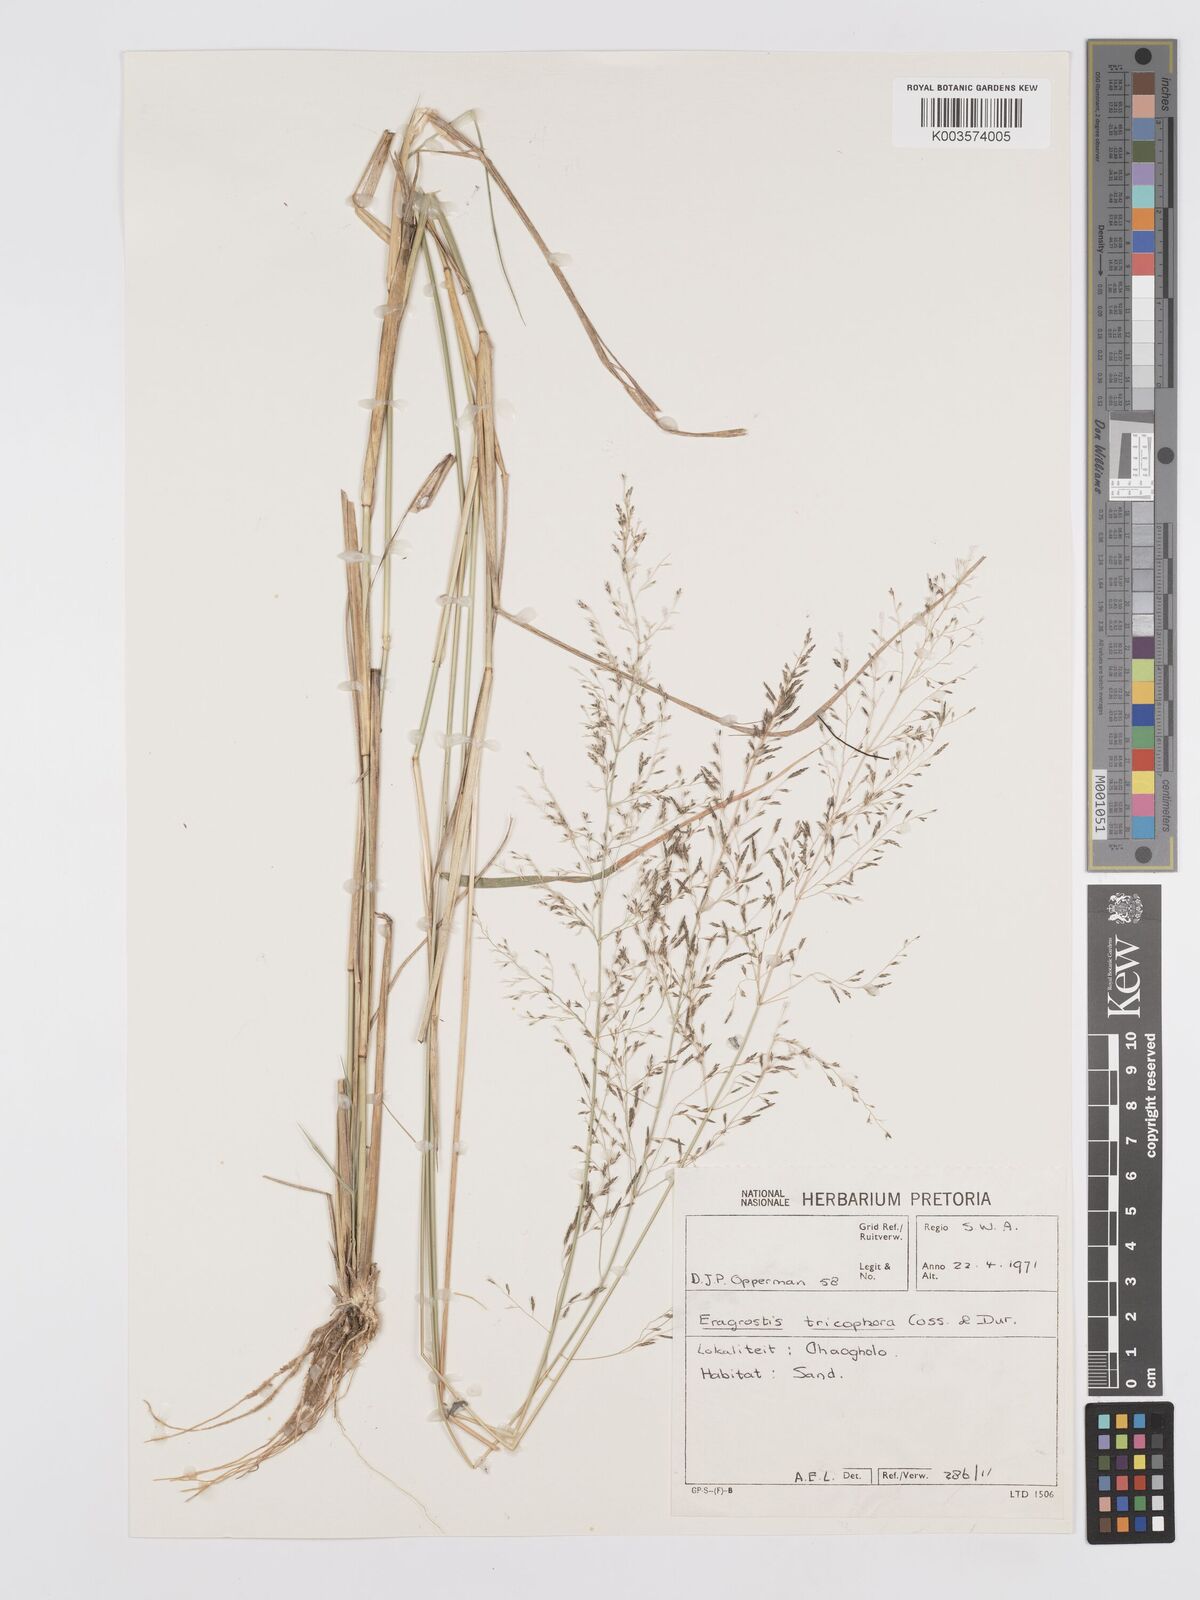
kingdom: Plantae
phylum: Tracheophyta
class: Liliopsida
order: Poales
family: Poaceae
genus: Eragrostis
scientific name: Eragrostis cylindriflora
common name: Cylinderflower lovegrass
